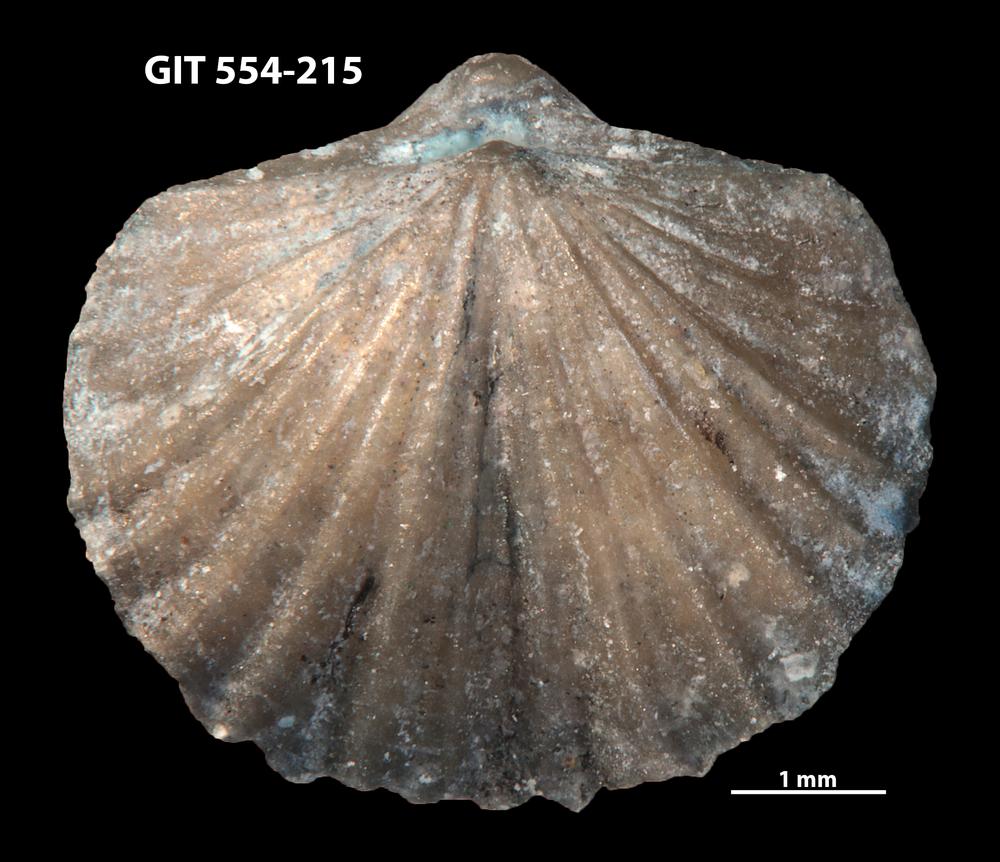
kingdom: Animalia
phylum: Brachiopoda
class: Rhynchonellata
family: Dalmanellidae
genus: Ravozetina
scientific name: Ravozetina
